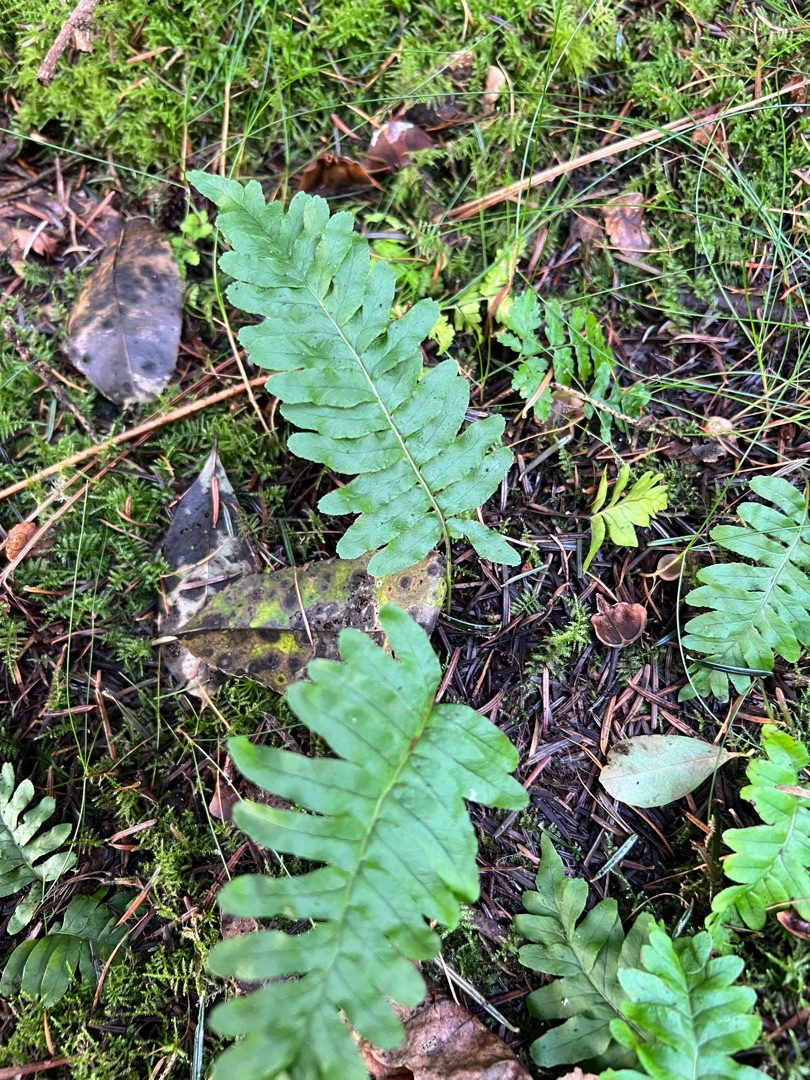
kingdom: Plantae
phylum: Tracheophyta
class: Polypodiopsida
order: Polypodiales
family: Polypodiaceae
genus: Polypodium
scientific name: Polypodium vulgare
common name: Almindelig engelsød
